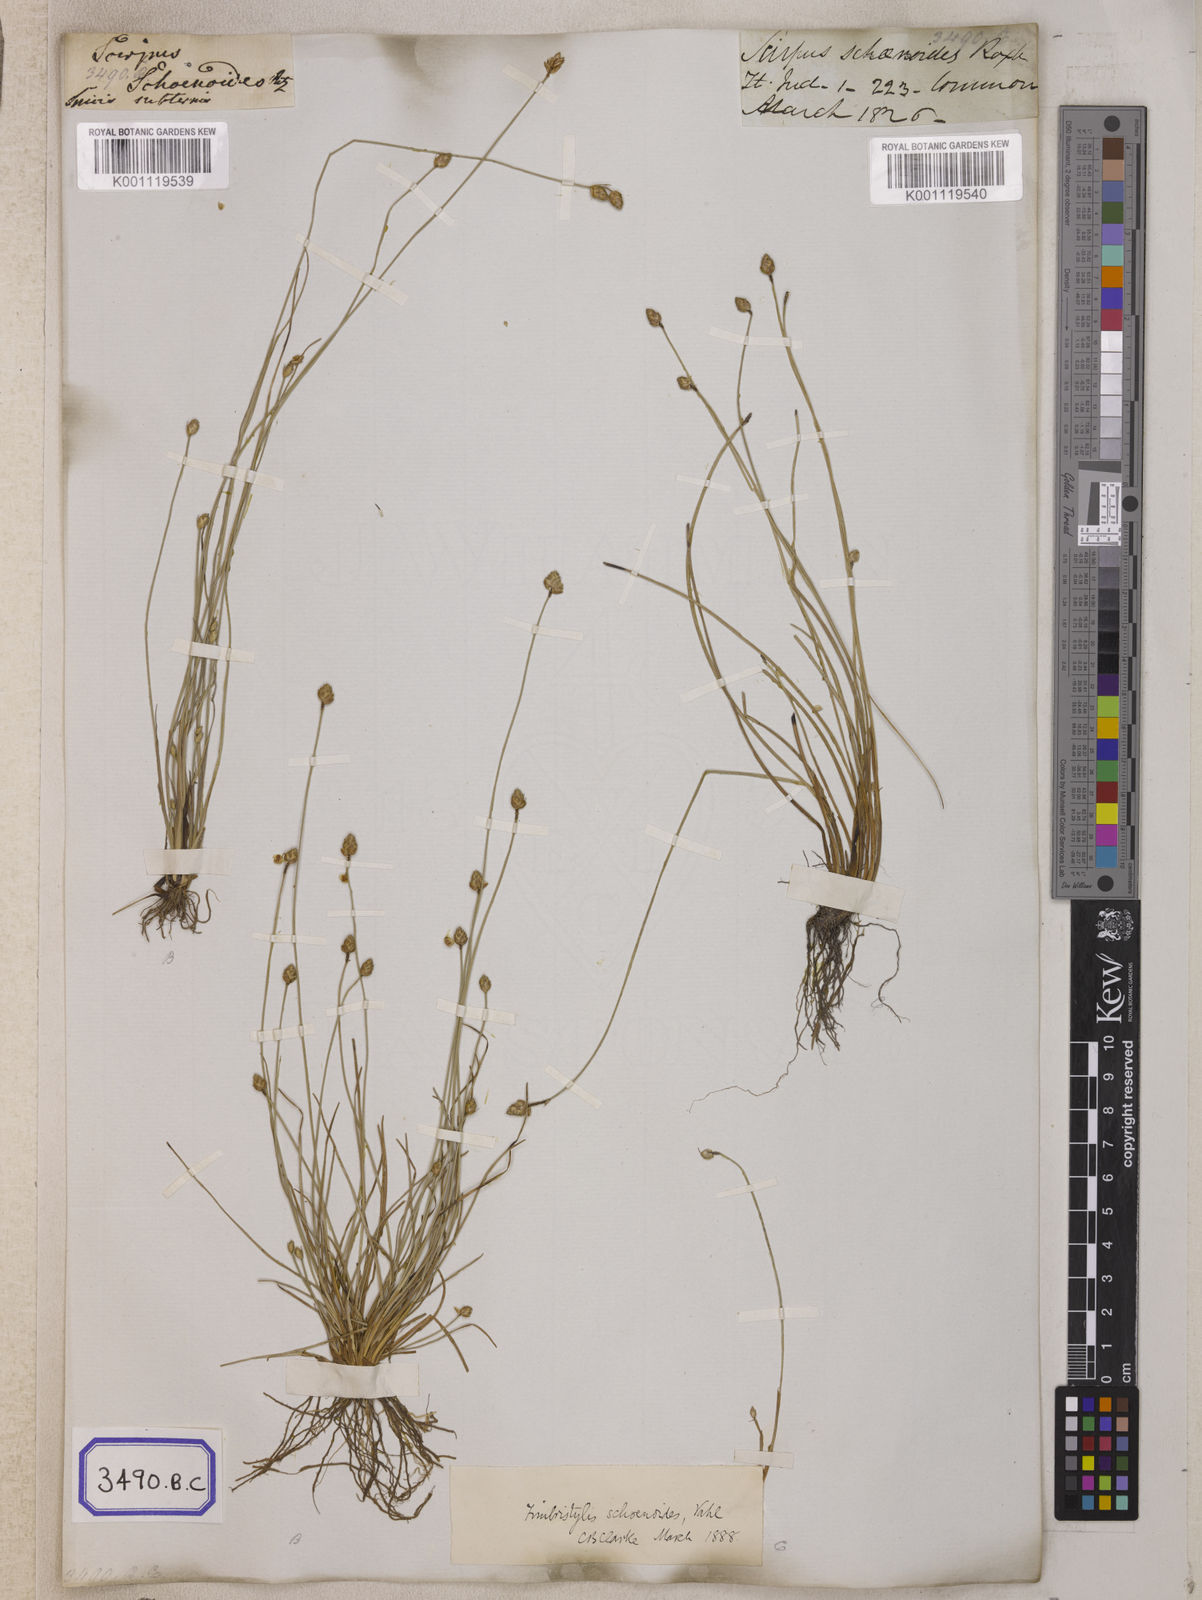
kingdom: Plantae
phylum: Tracheophyta
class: Liliopsida
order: Poales
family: Cyperaceae
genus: Isolepis
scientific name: Isolepis
